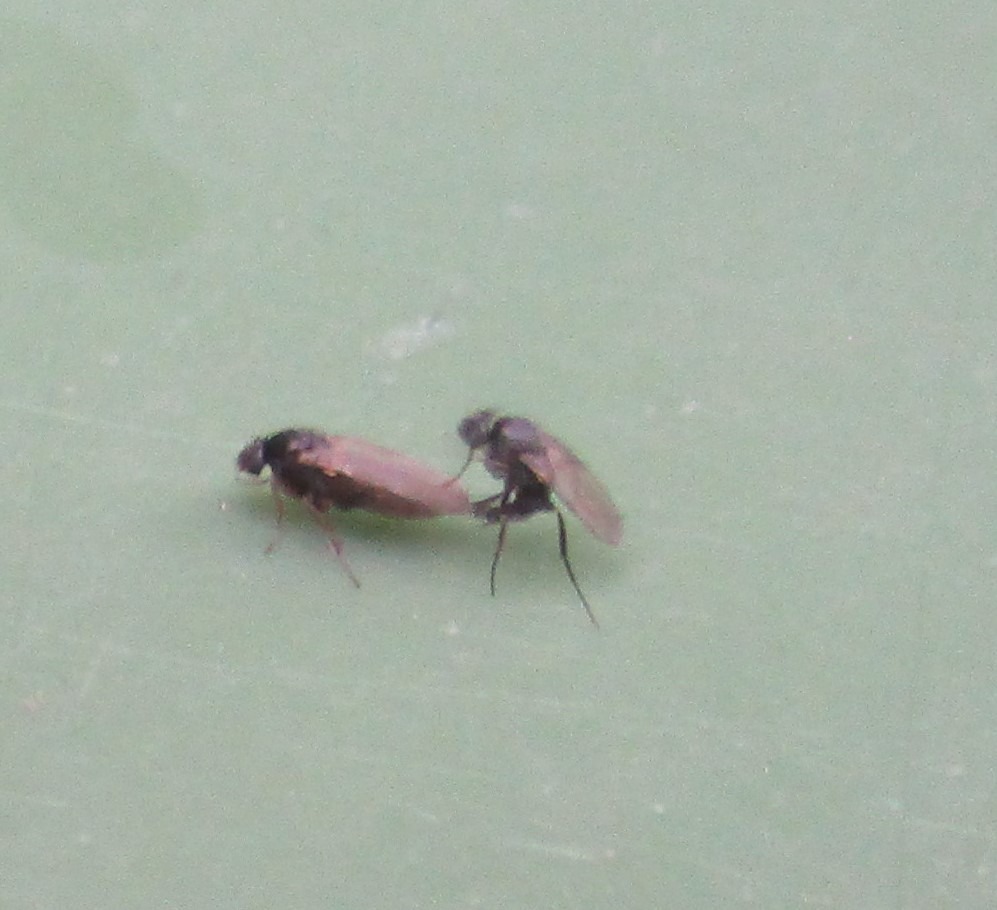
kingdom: Animalia
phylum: Arthropoda
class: Insecta
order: Diptera
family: Phoridae
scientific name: Phoridae
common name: Pukkelfluer
